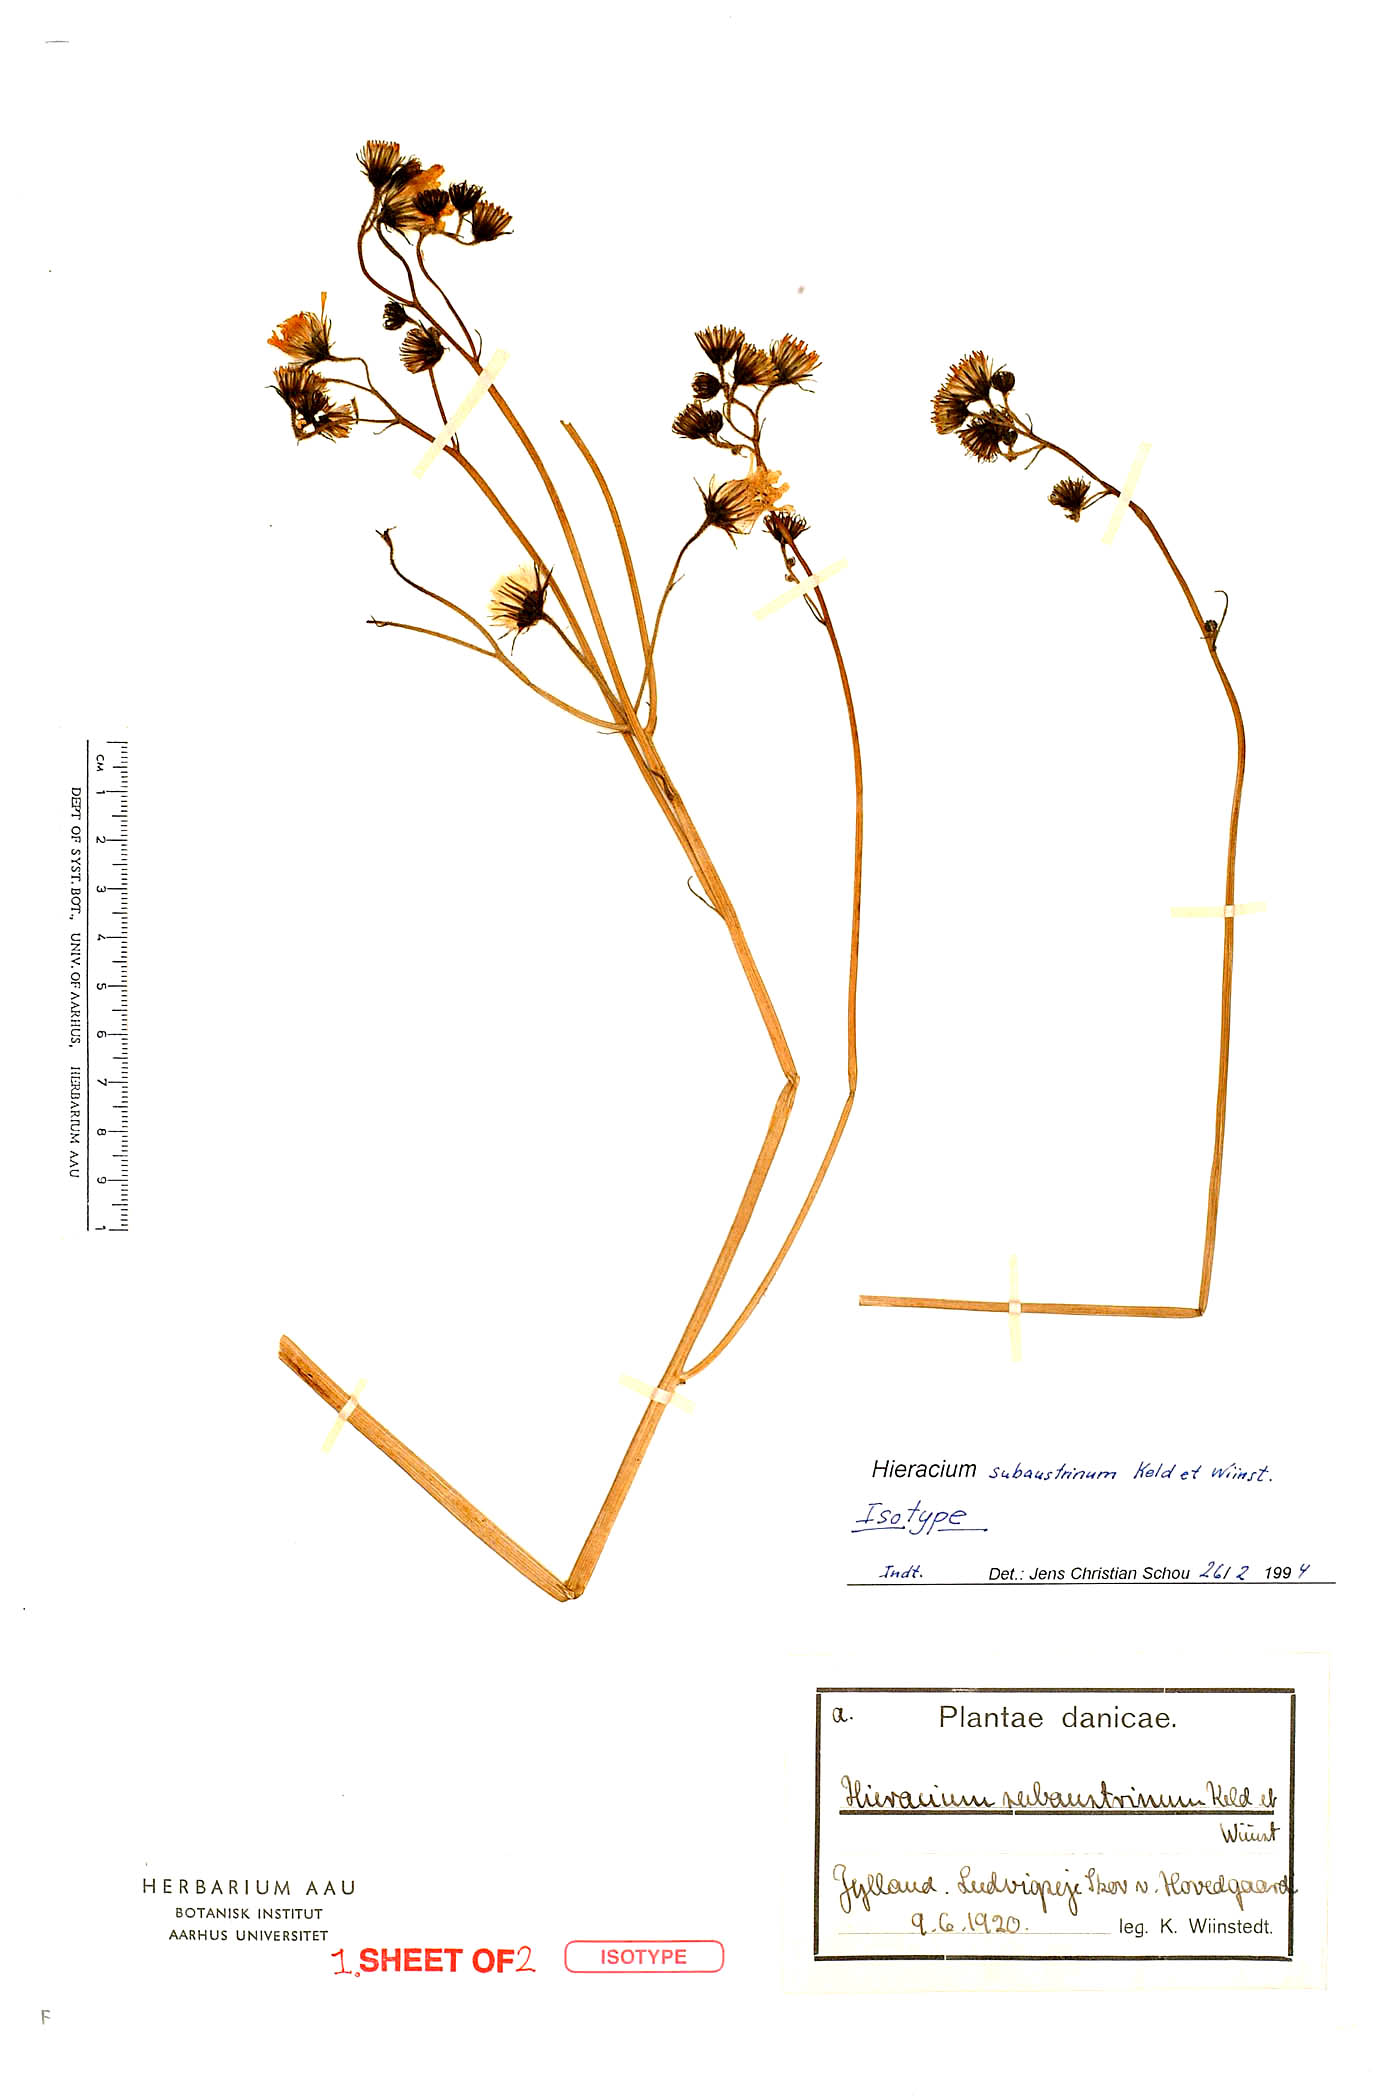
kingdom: Plantae
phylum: Tracheophyta
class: Magnoliopsida
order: Asterales
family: Asteraceae
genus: Hieracium
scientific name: Hieracium lachenalii
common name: Common hawkweed
